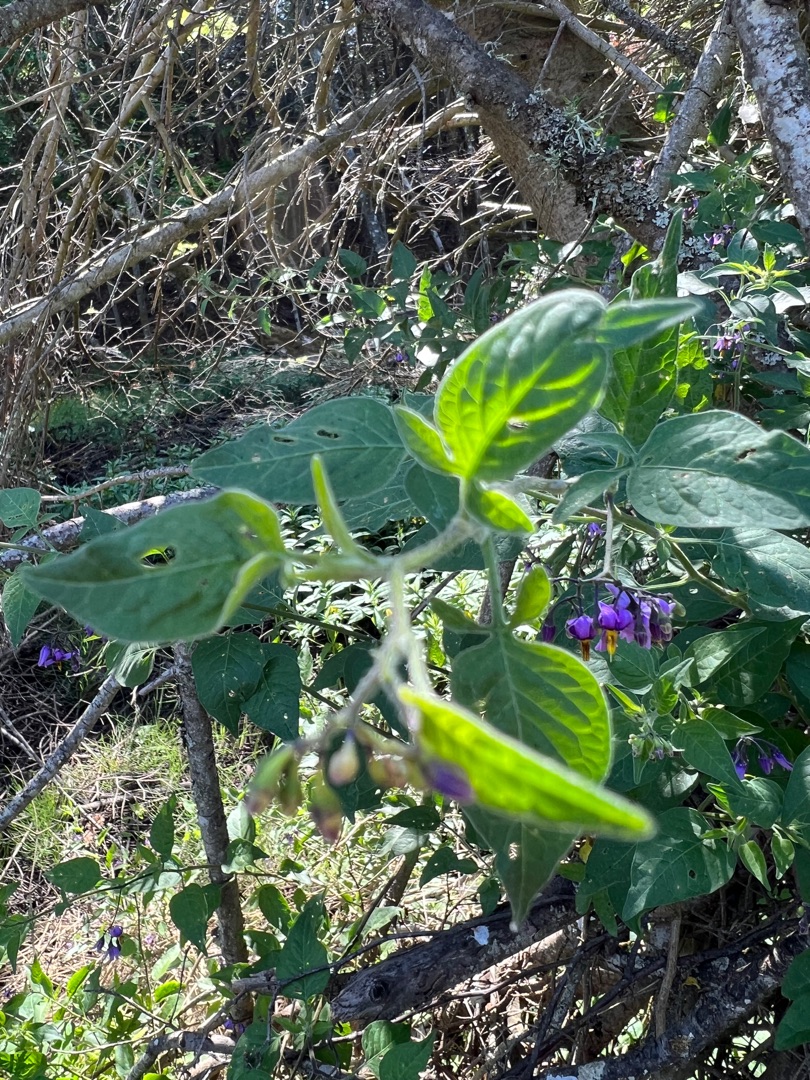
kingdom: Plantae
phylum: Tracheophyta
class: Magnoliopsida
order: Solanales
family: Solanaceae
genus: Solanum
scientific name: Solanum dulcamara
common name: Bittersød natskygge
